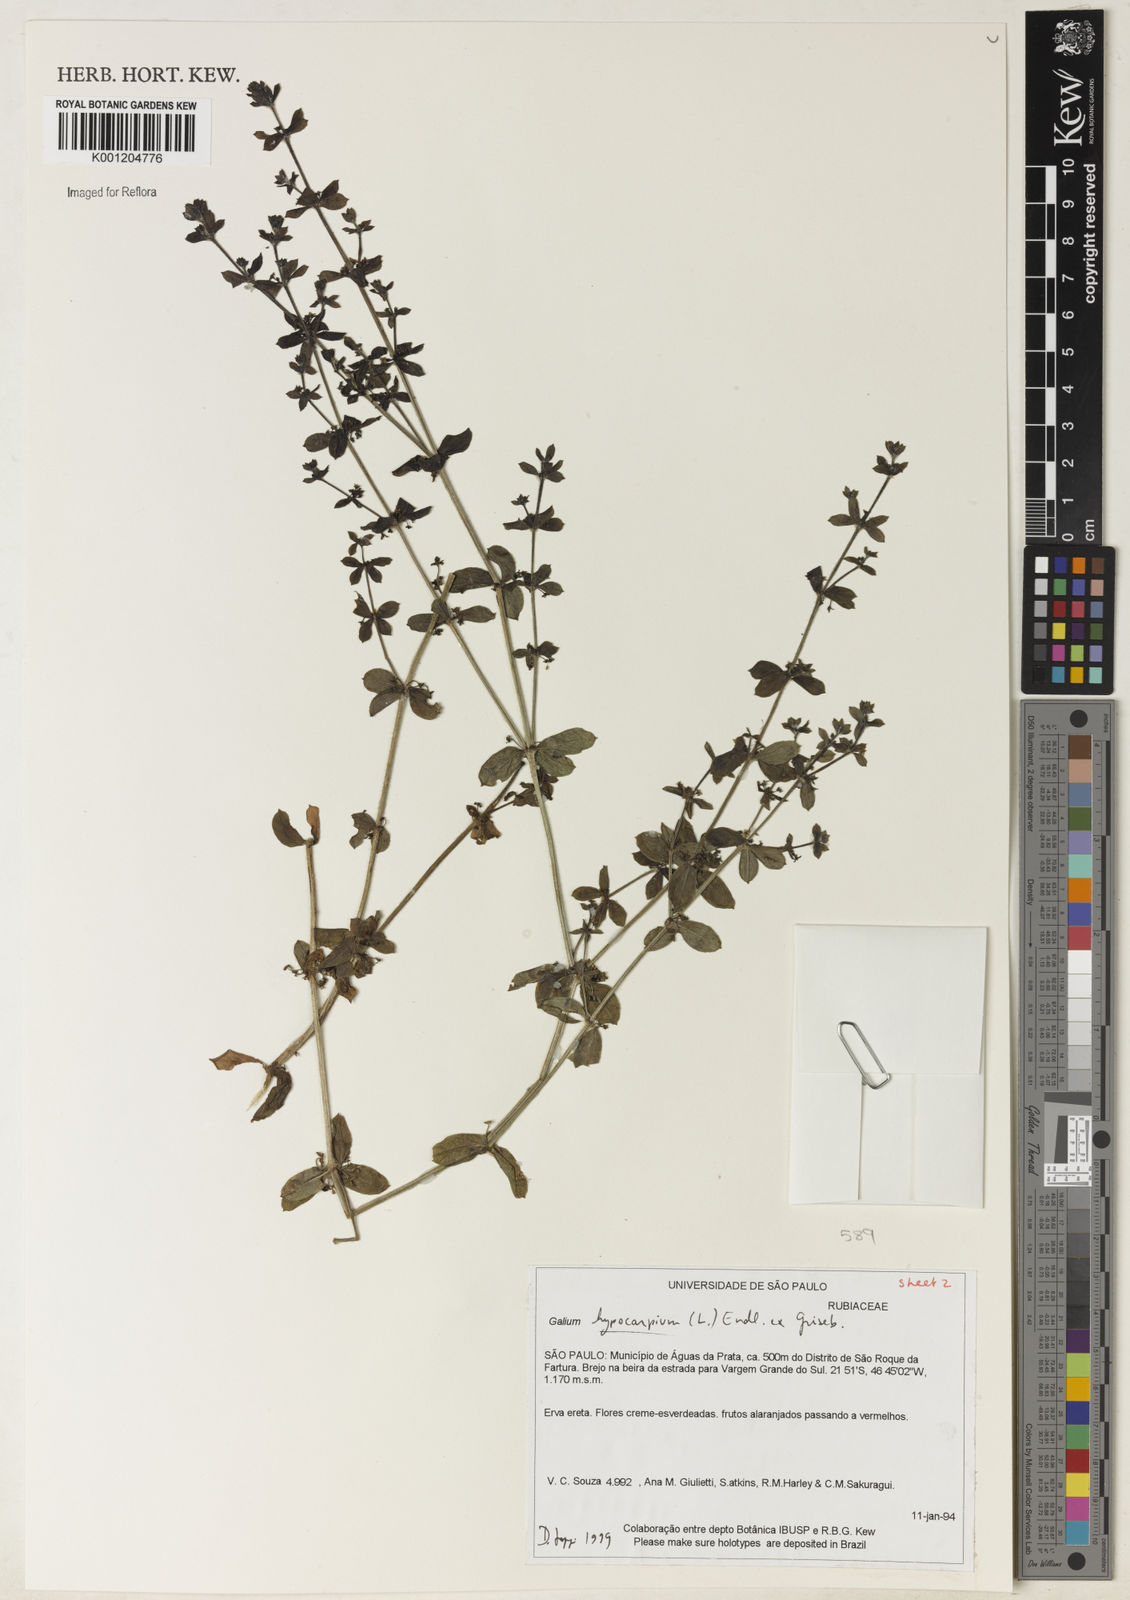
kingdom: Plantae
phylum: Tracheophyta
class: Magnoliopsida
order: Gentianales
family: Rubiaceae
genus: Galium
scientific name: Galium hypocarpium
